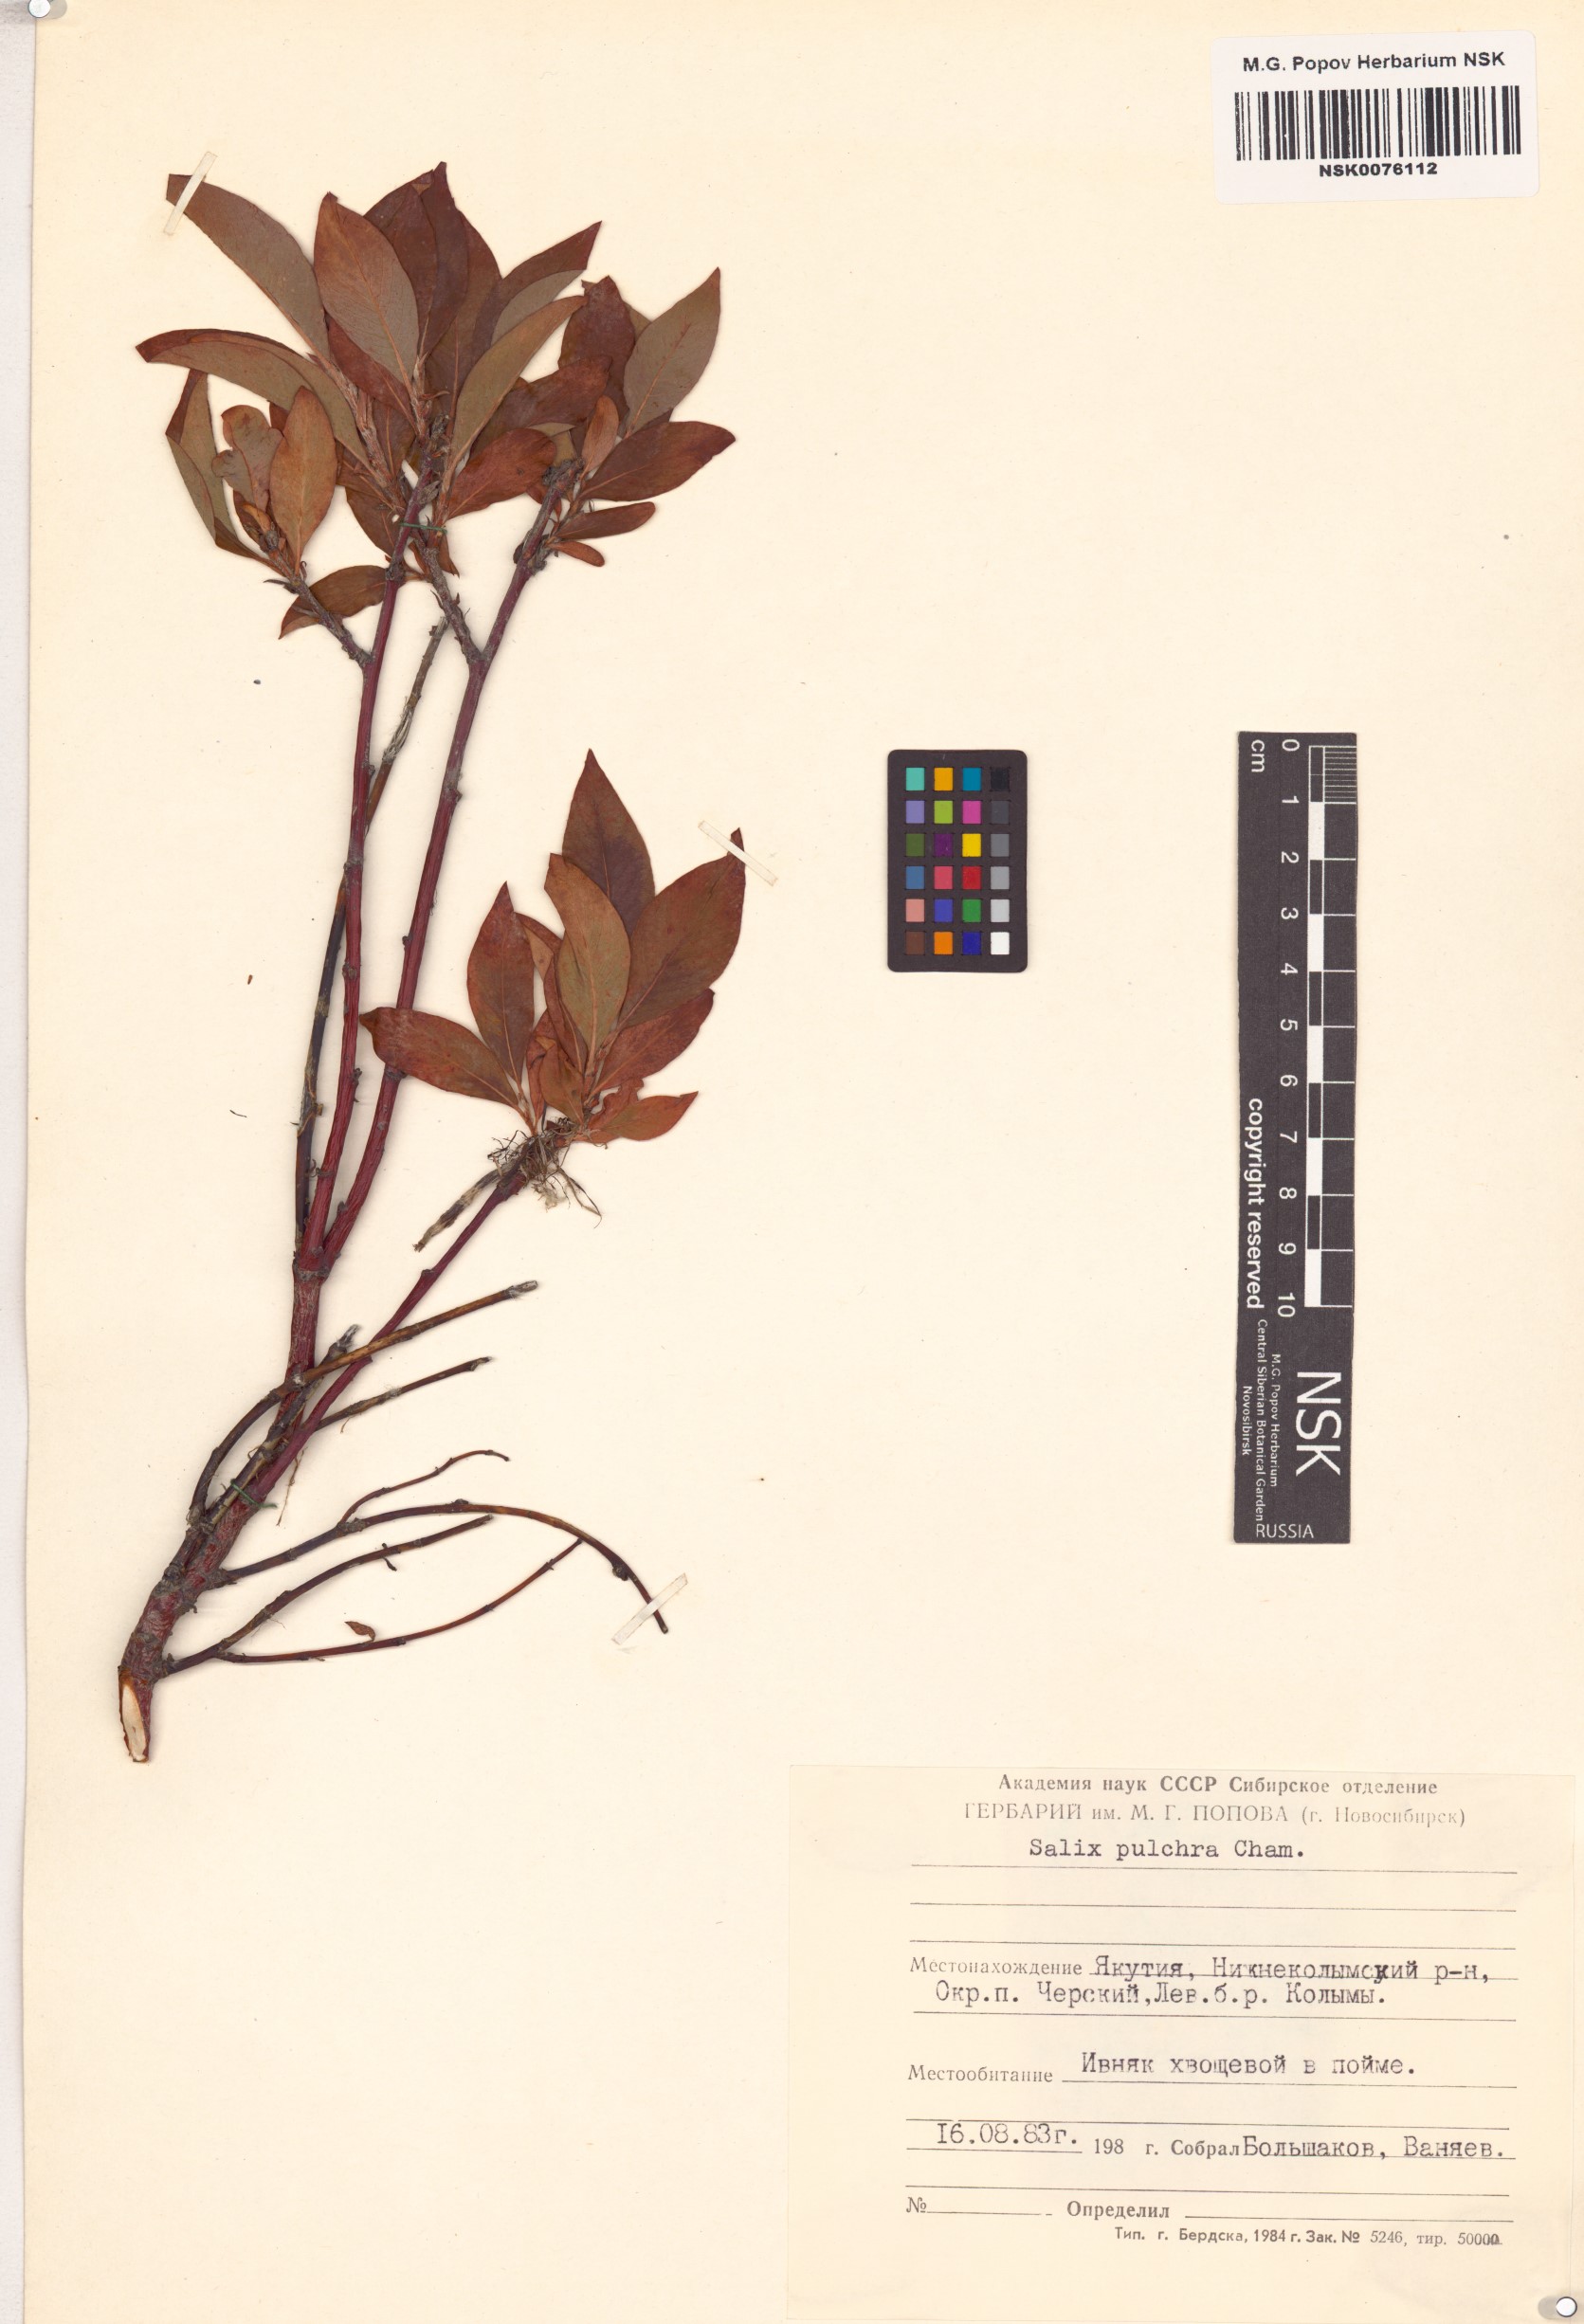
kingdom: Plantae
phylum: Tracheophyta
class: Magnoliopsida
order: Malpighiales
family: Salicaceae
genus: Salix
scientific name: Salix pulchra
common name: Diamond-leaved willow
